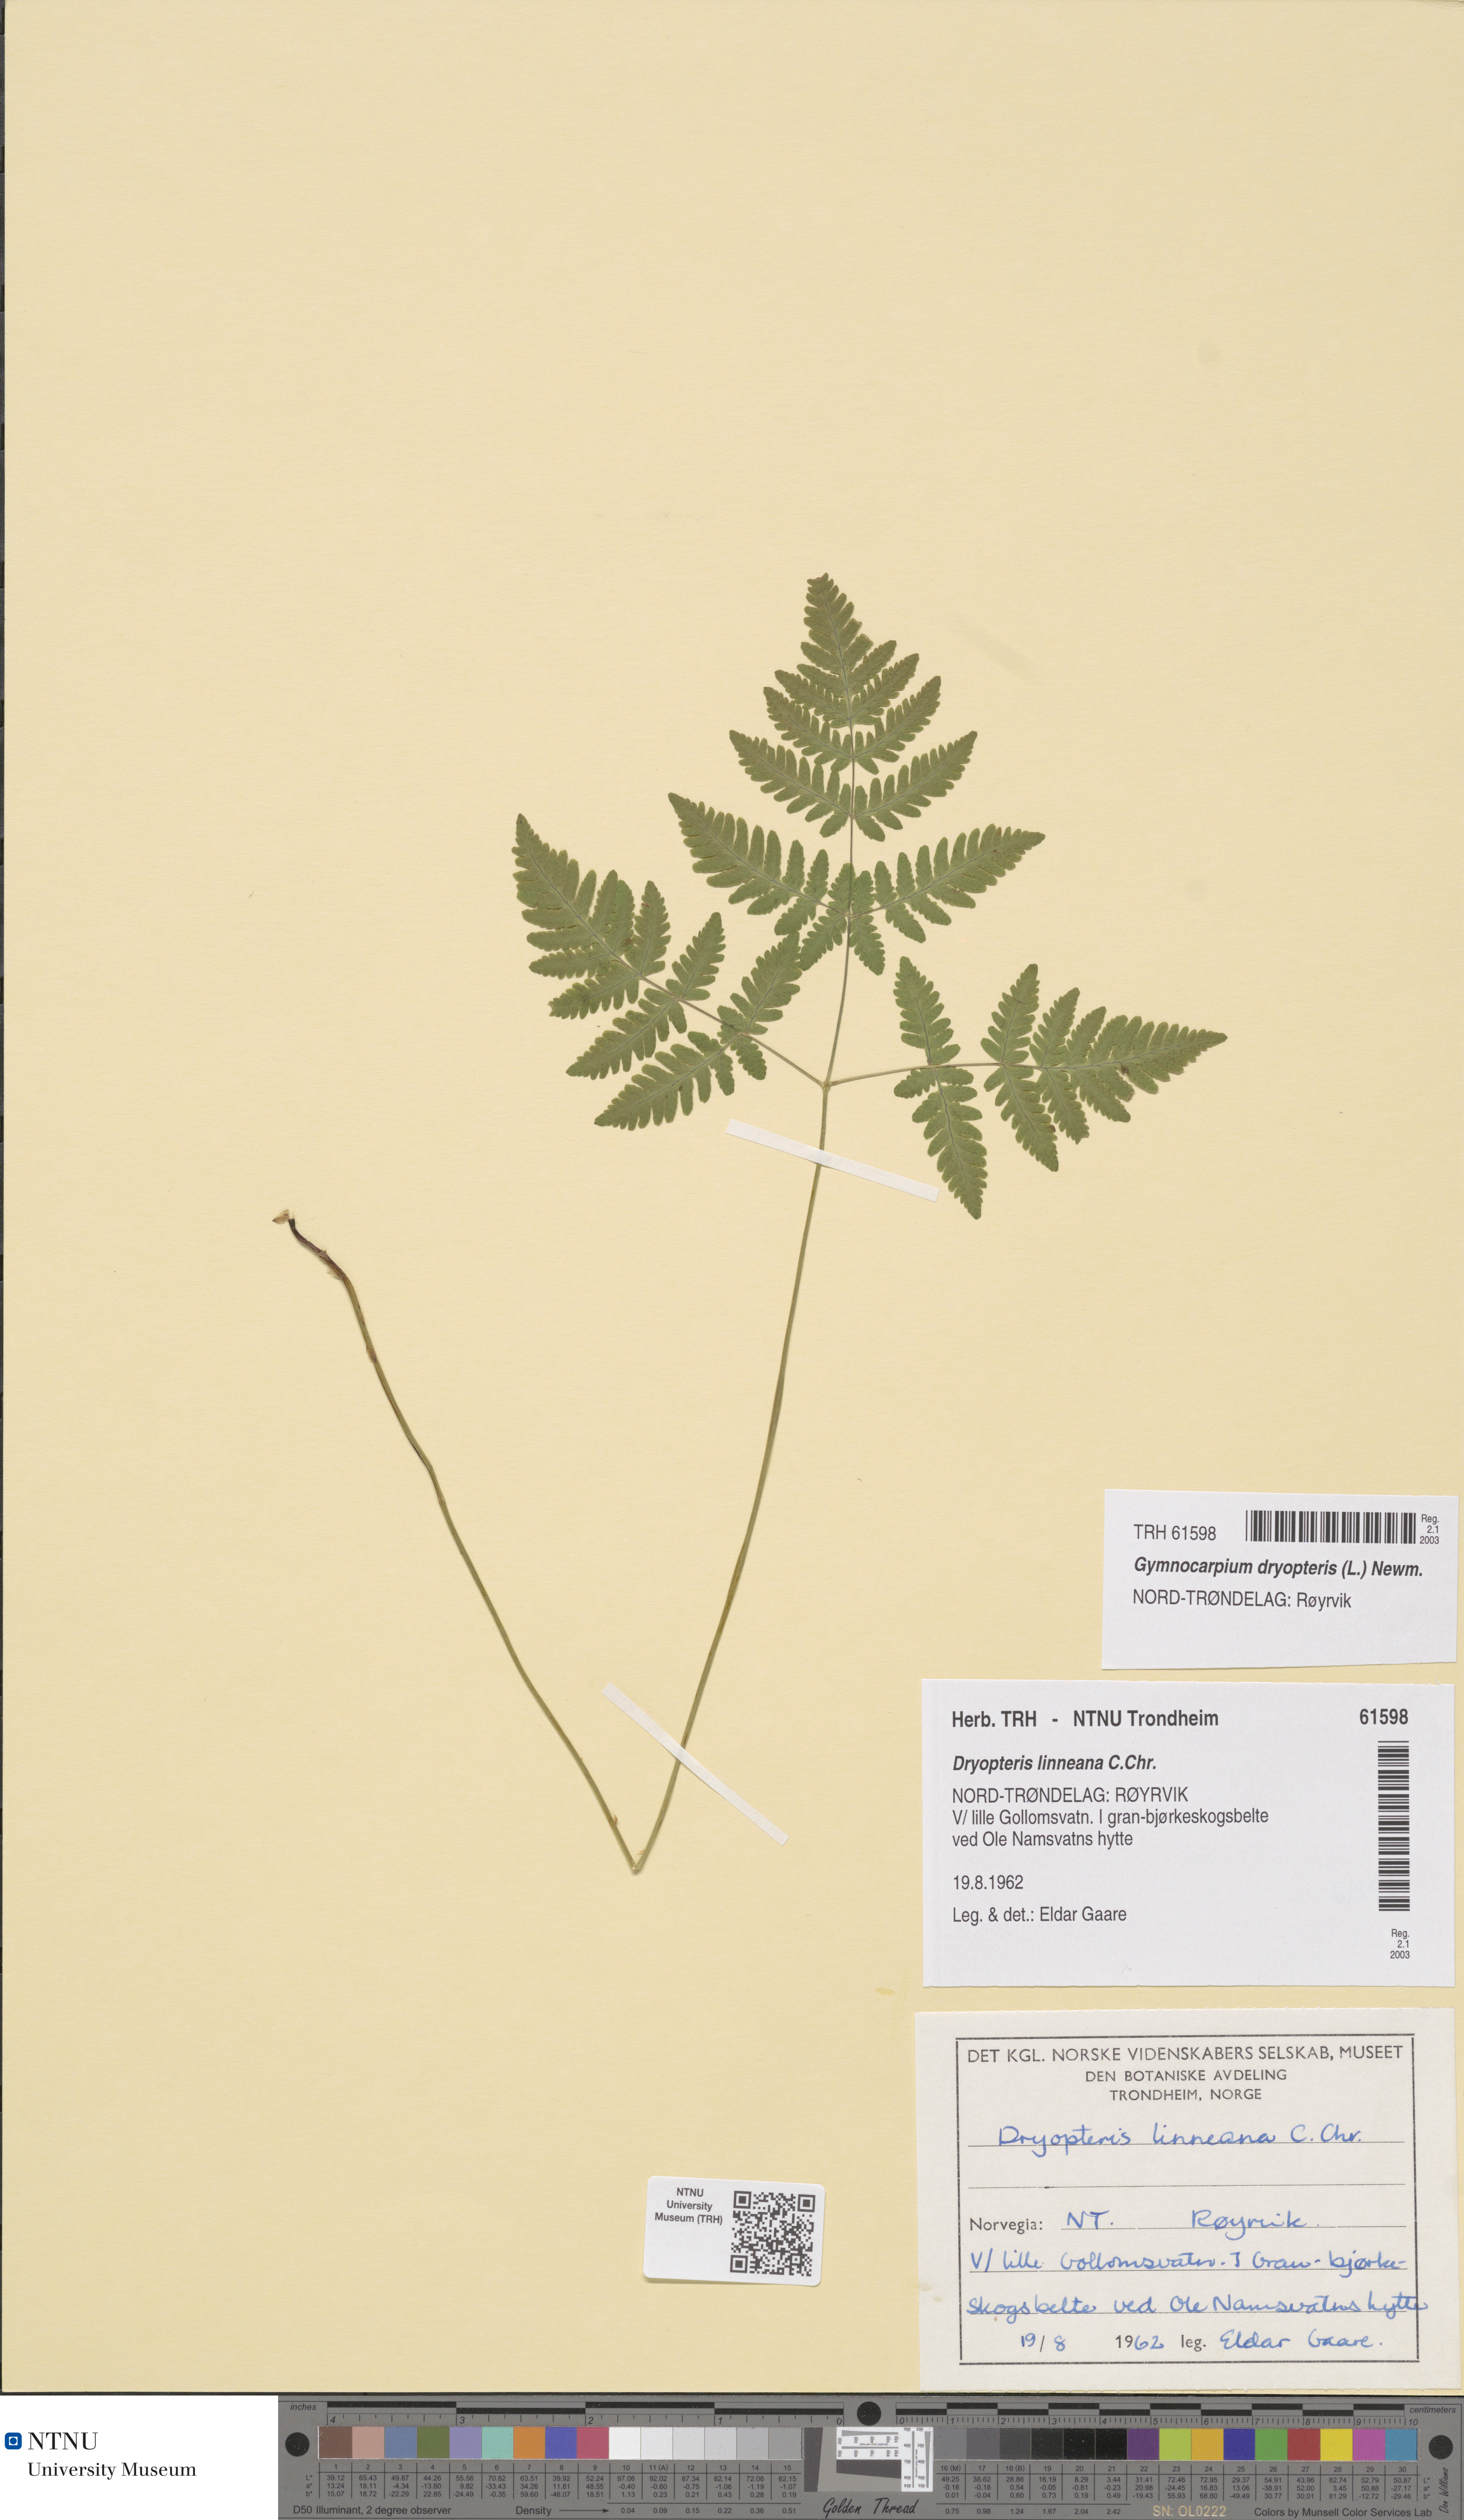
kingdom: Plantae
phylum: Tracheophyta
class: Polypodiopsida
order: Polypodiales
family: Cystopteridaceae
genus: Gymnocarpium
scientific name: Gymnocarpium dryopteris
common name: Oak fern
